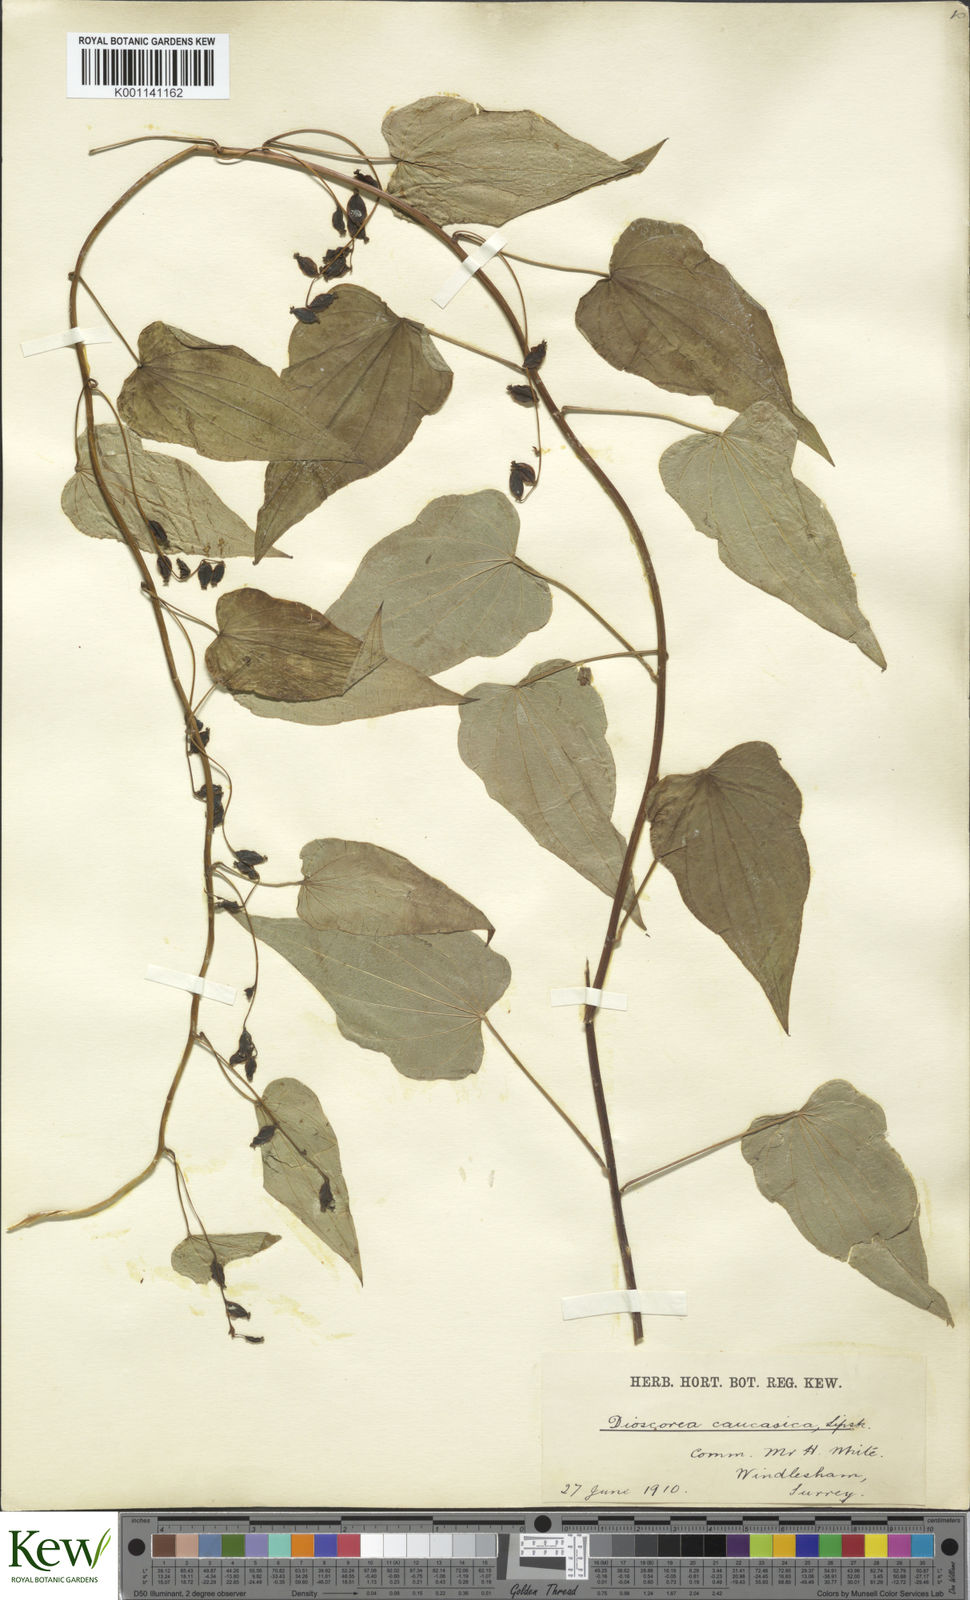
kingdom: Plantae
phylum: Tracheophyta
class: Liliopsida
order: Dioscoreales
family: Dioscoreaceae
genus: Dioscorea
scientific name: Dioscorea caucasica
